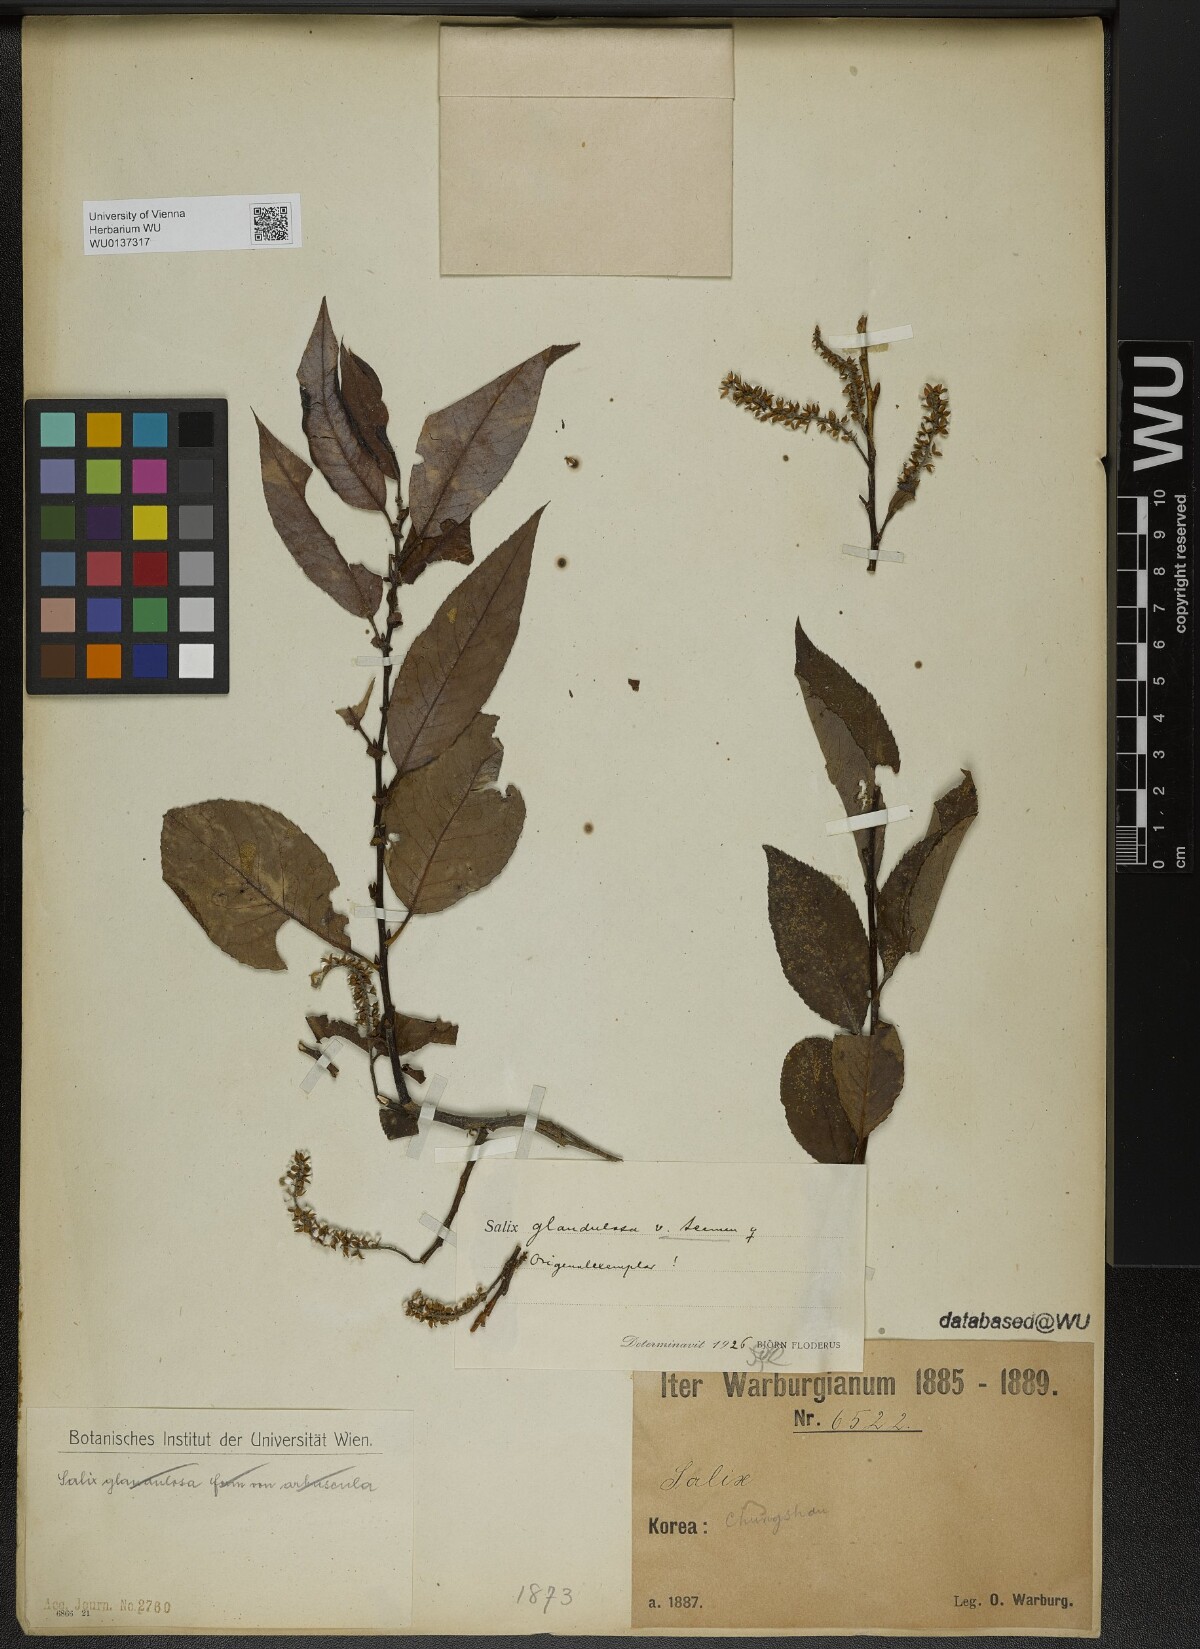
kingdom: Plantae
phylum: Tracheophyta
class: Magnoliopsida
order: Malpighiales
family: Salicaceae
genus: Salix
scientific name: Salix chaenomeloides
